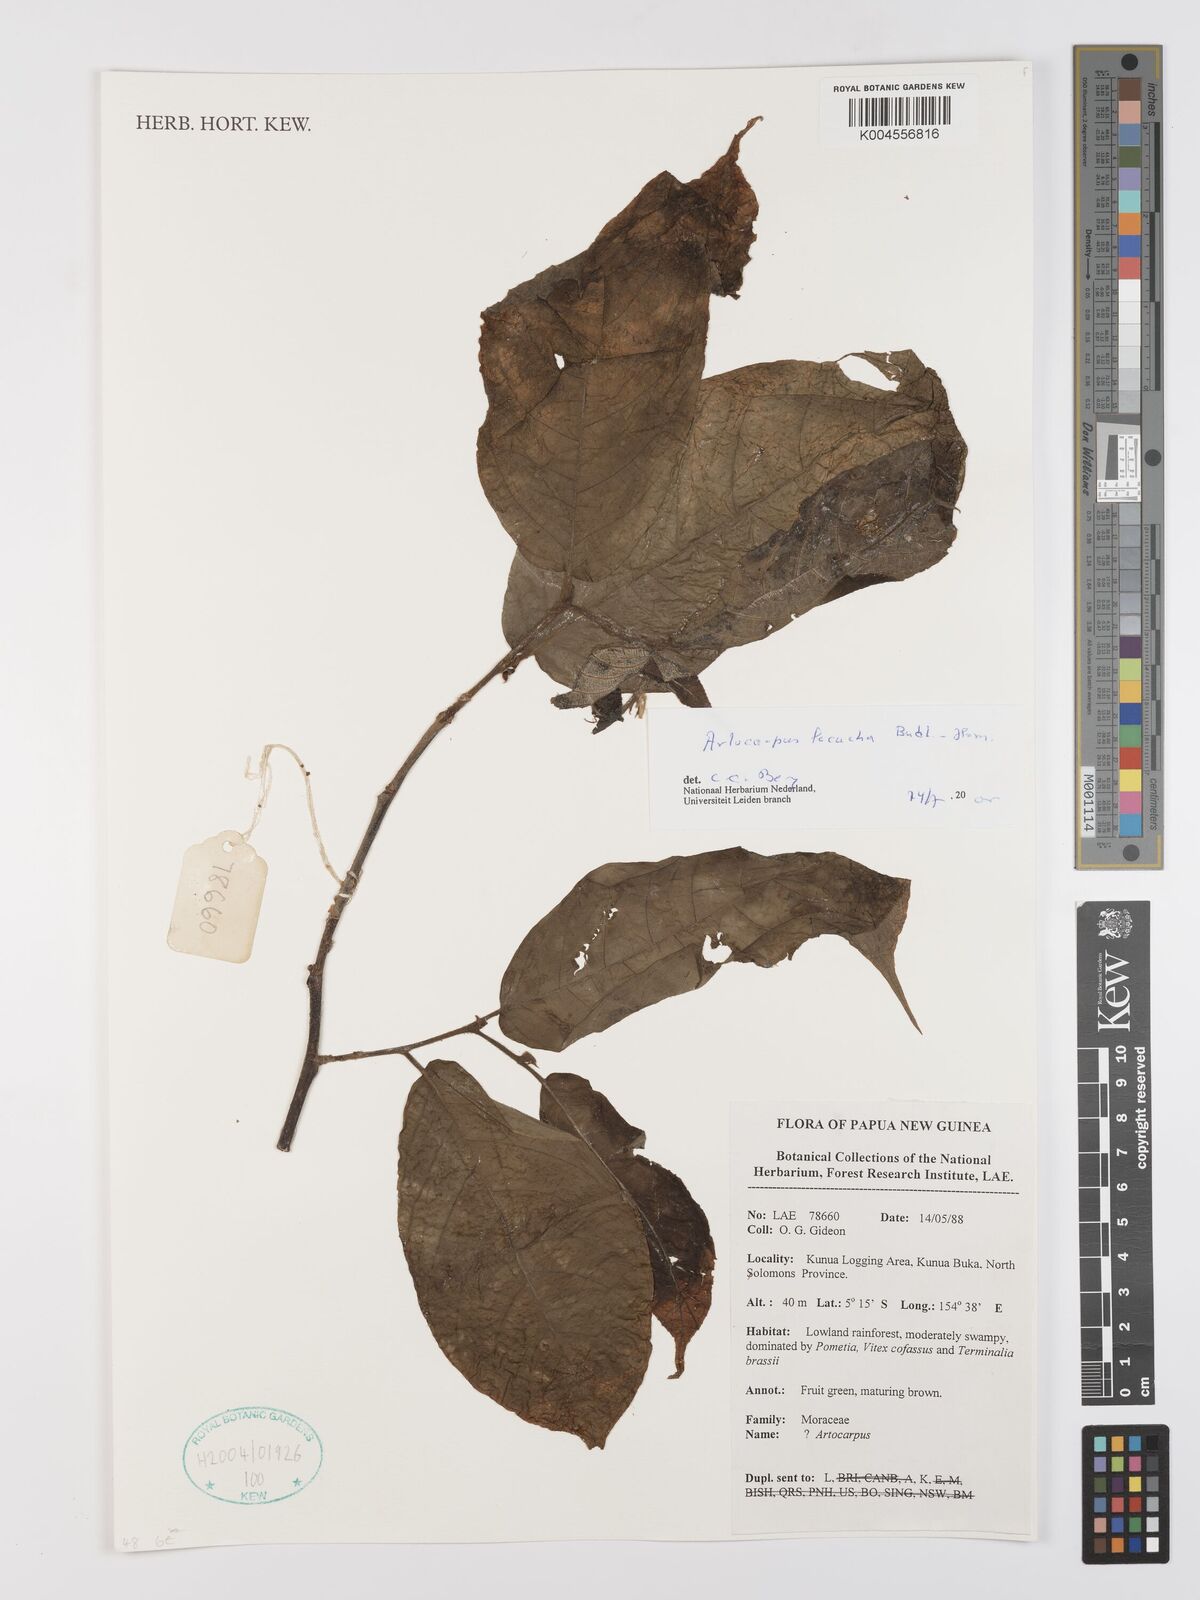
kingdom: Plantae
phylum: Tracheophyta
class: Magnoliopsida
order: Rosales
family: Moraceae
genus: Artocarpus
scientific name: Artocarpus lacucha
